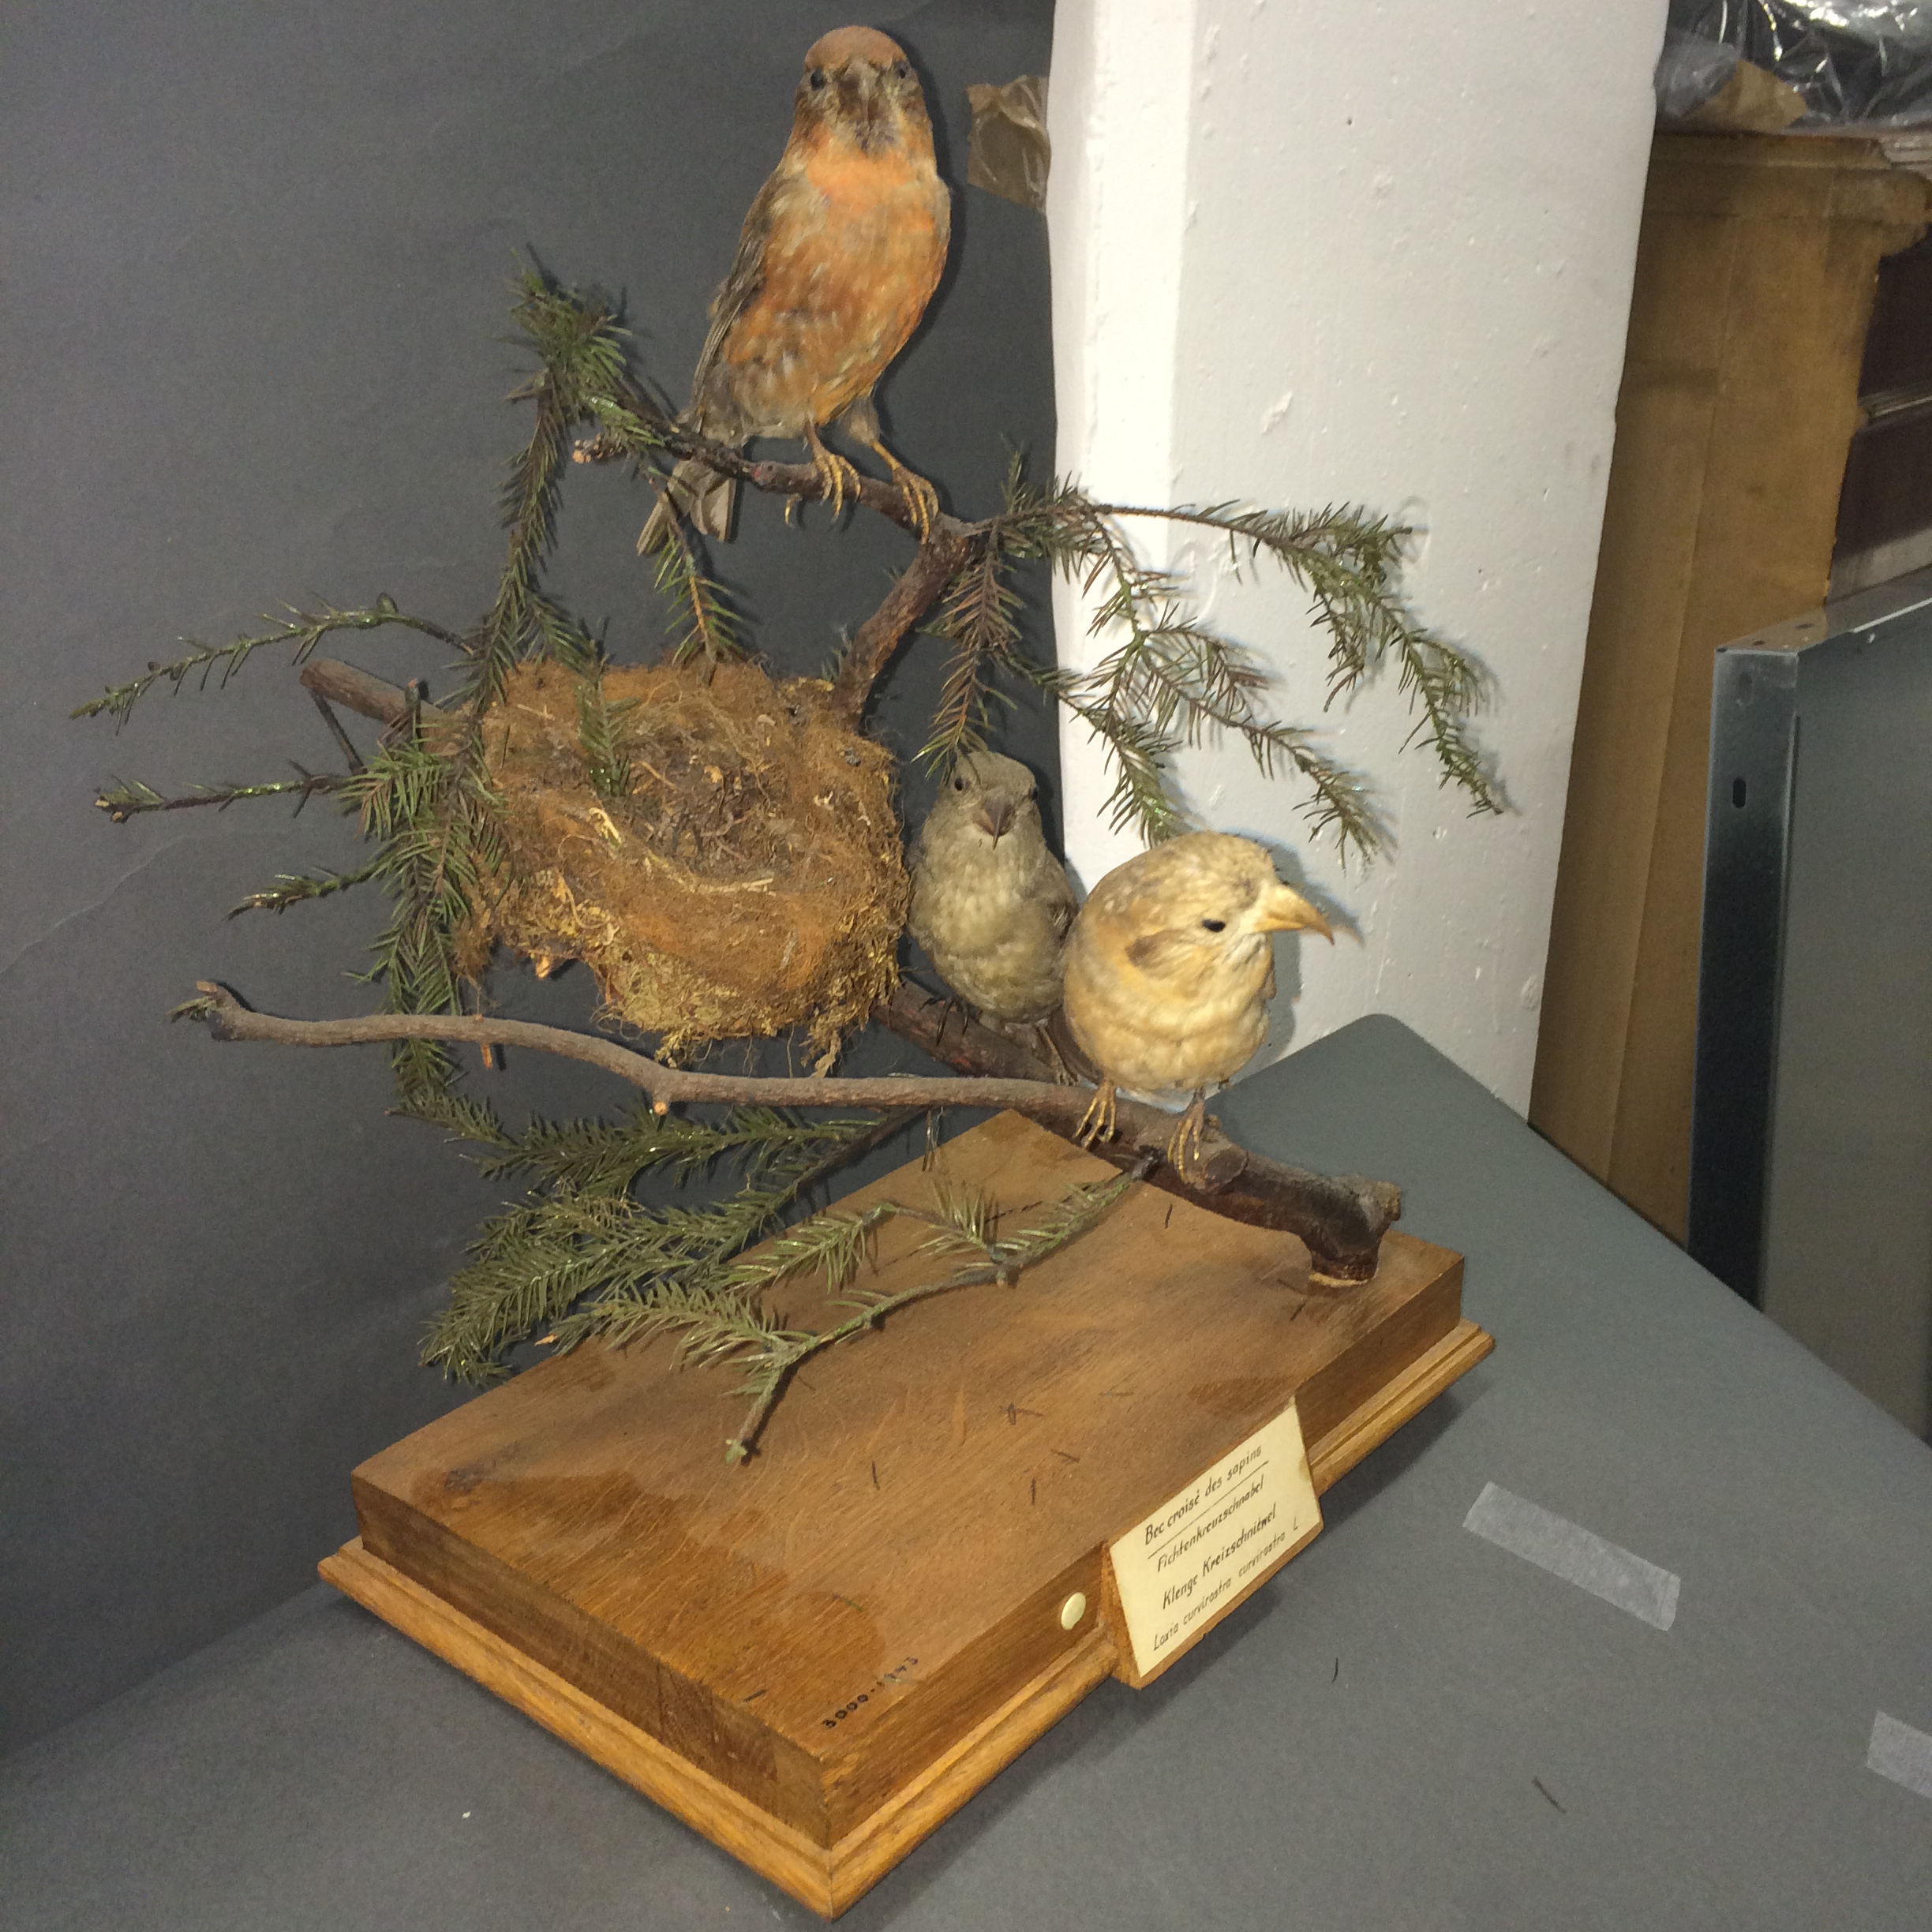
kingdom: Animalia
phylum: Chordata
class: Aves
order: Passeriformes
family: Fringillidae
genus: Loxia
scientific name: Loxia curvirostra
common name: Red crossbill
